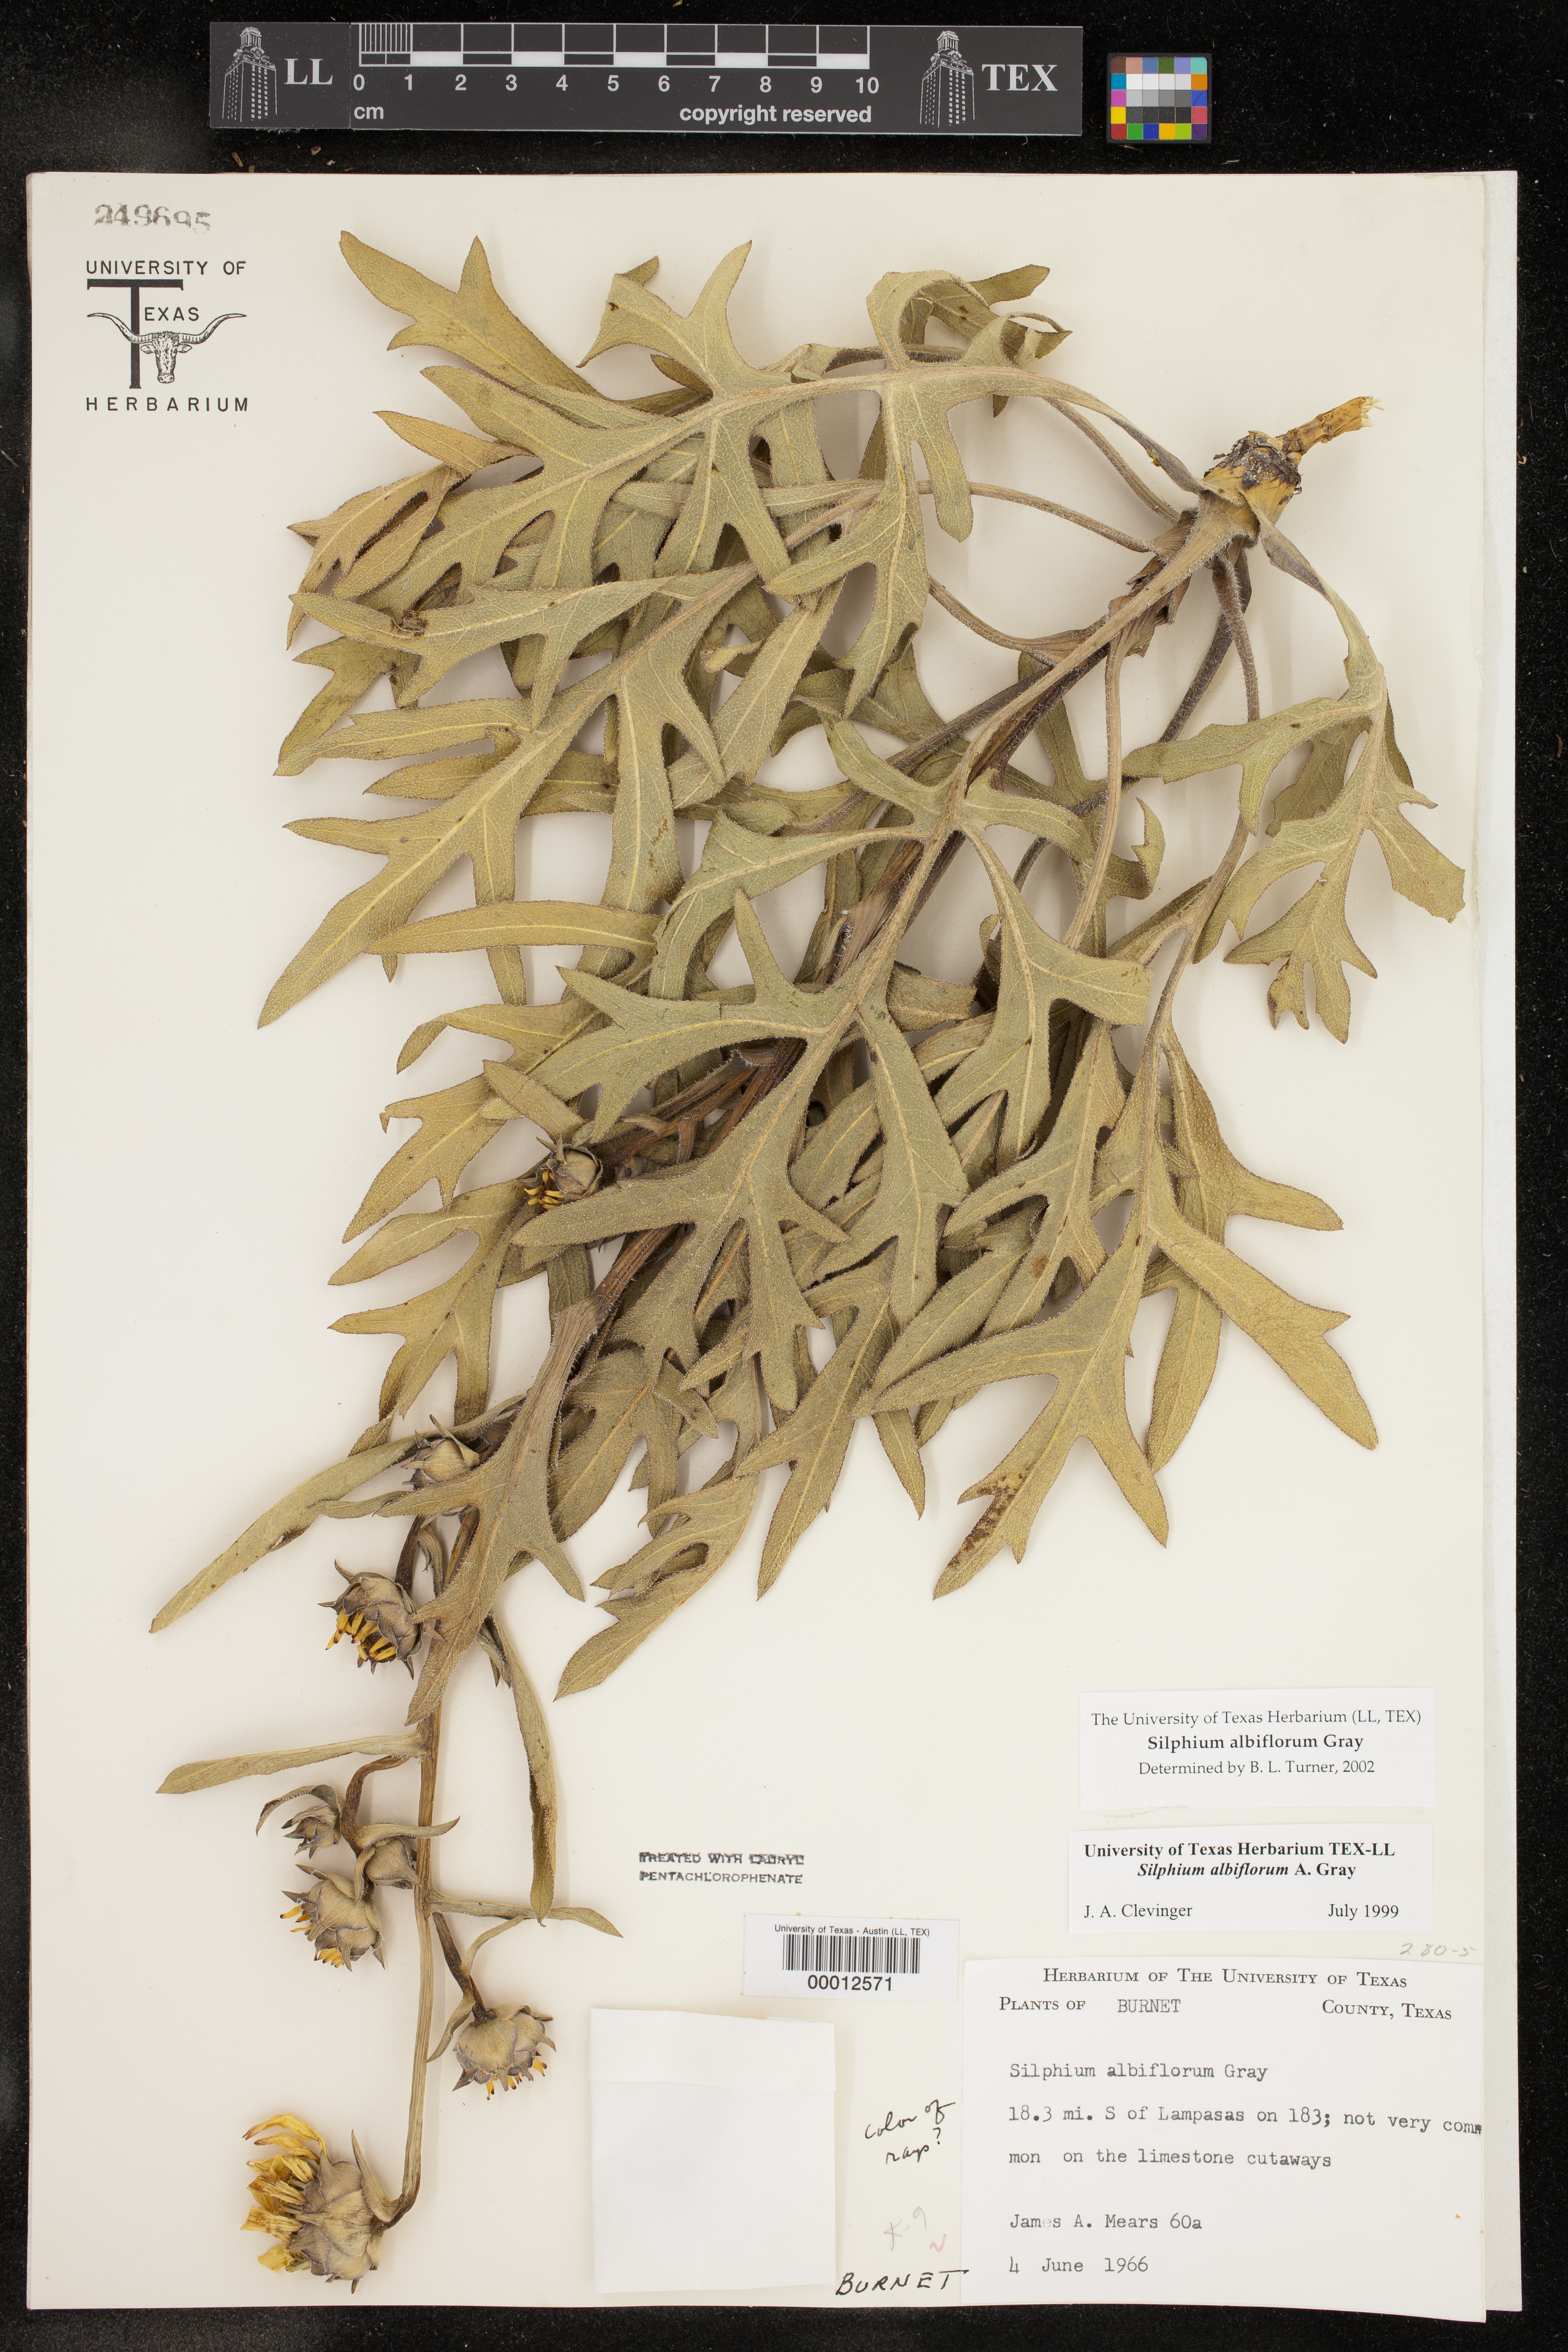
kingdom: Plantae
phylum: Tracheophyta
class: Magnoliopsida
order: Asterales
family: Asteraceae
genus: Silphium
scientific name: Silphium albiflorum
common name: White rosinweed
